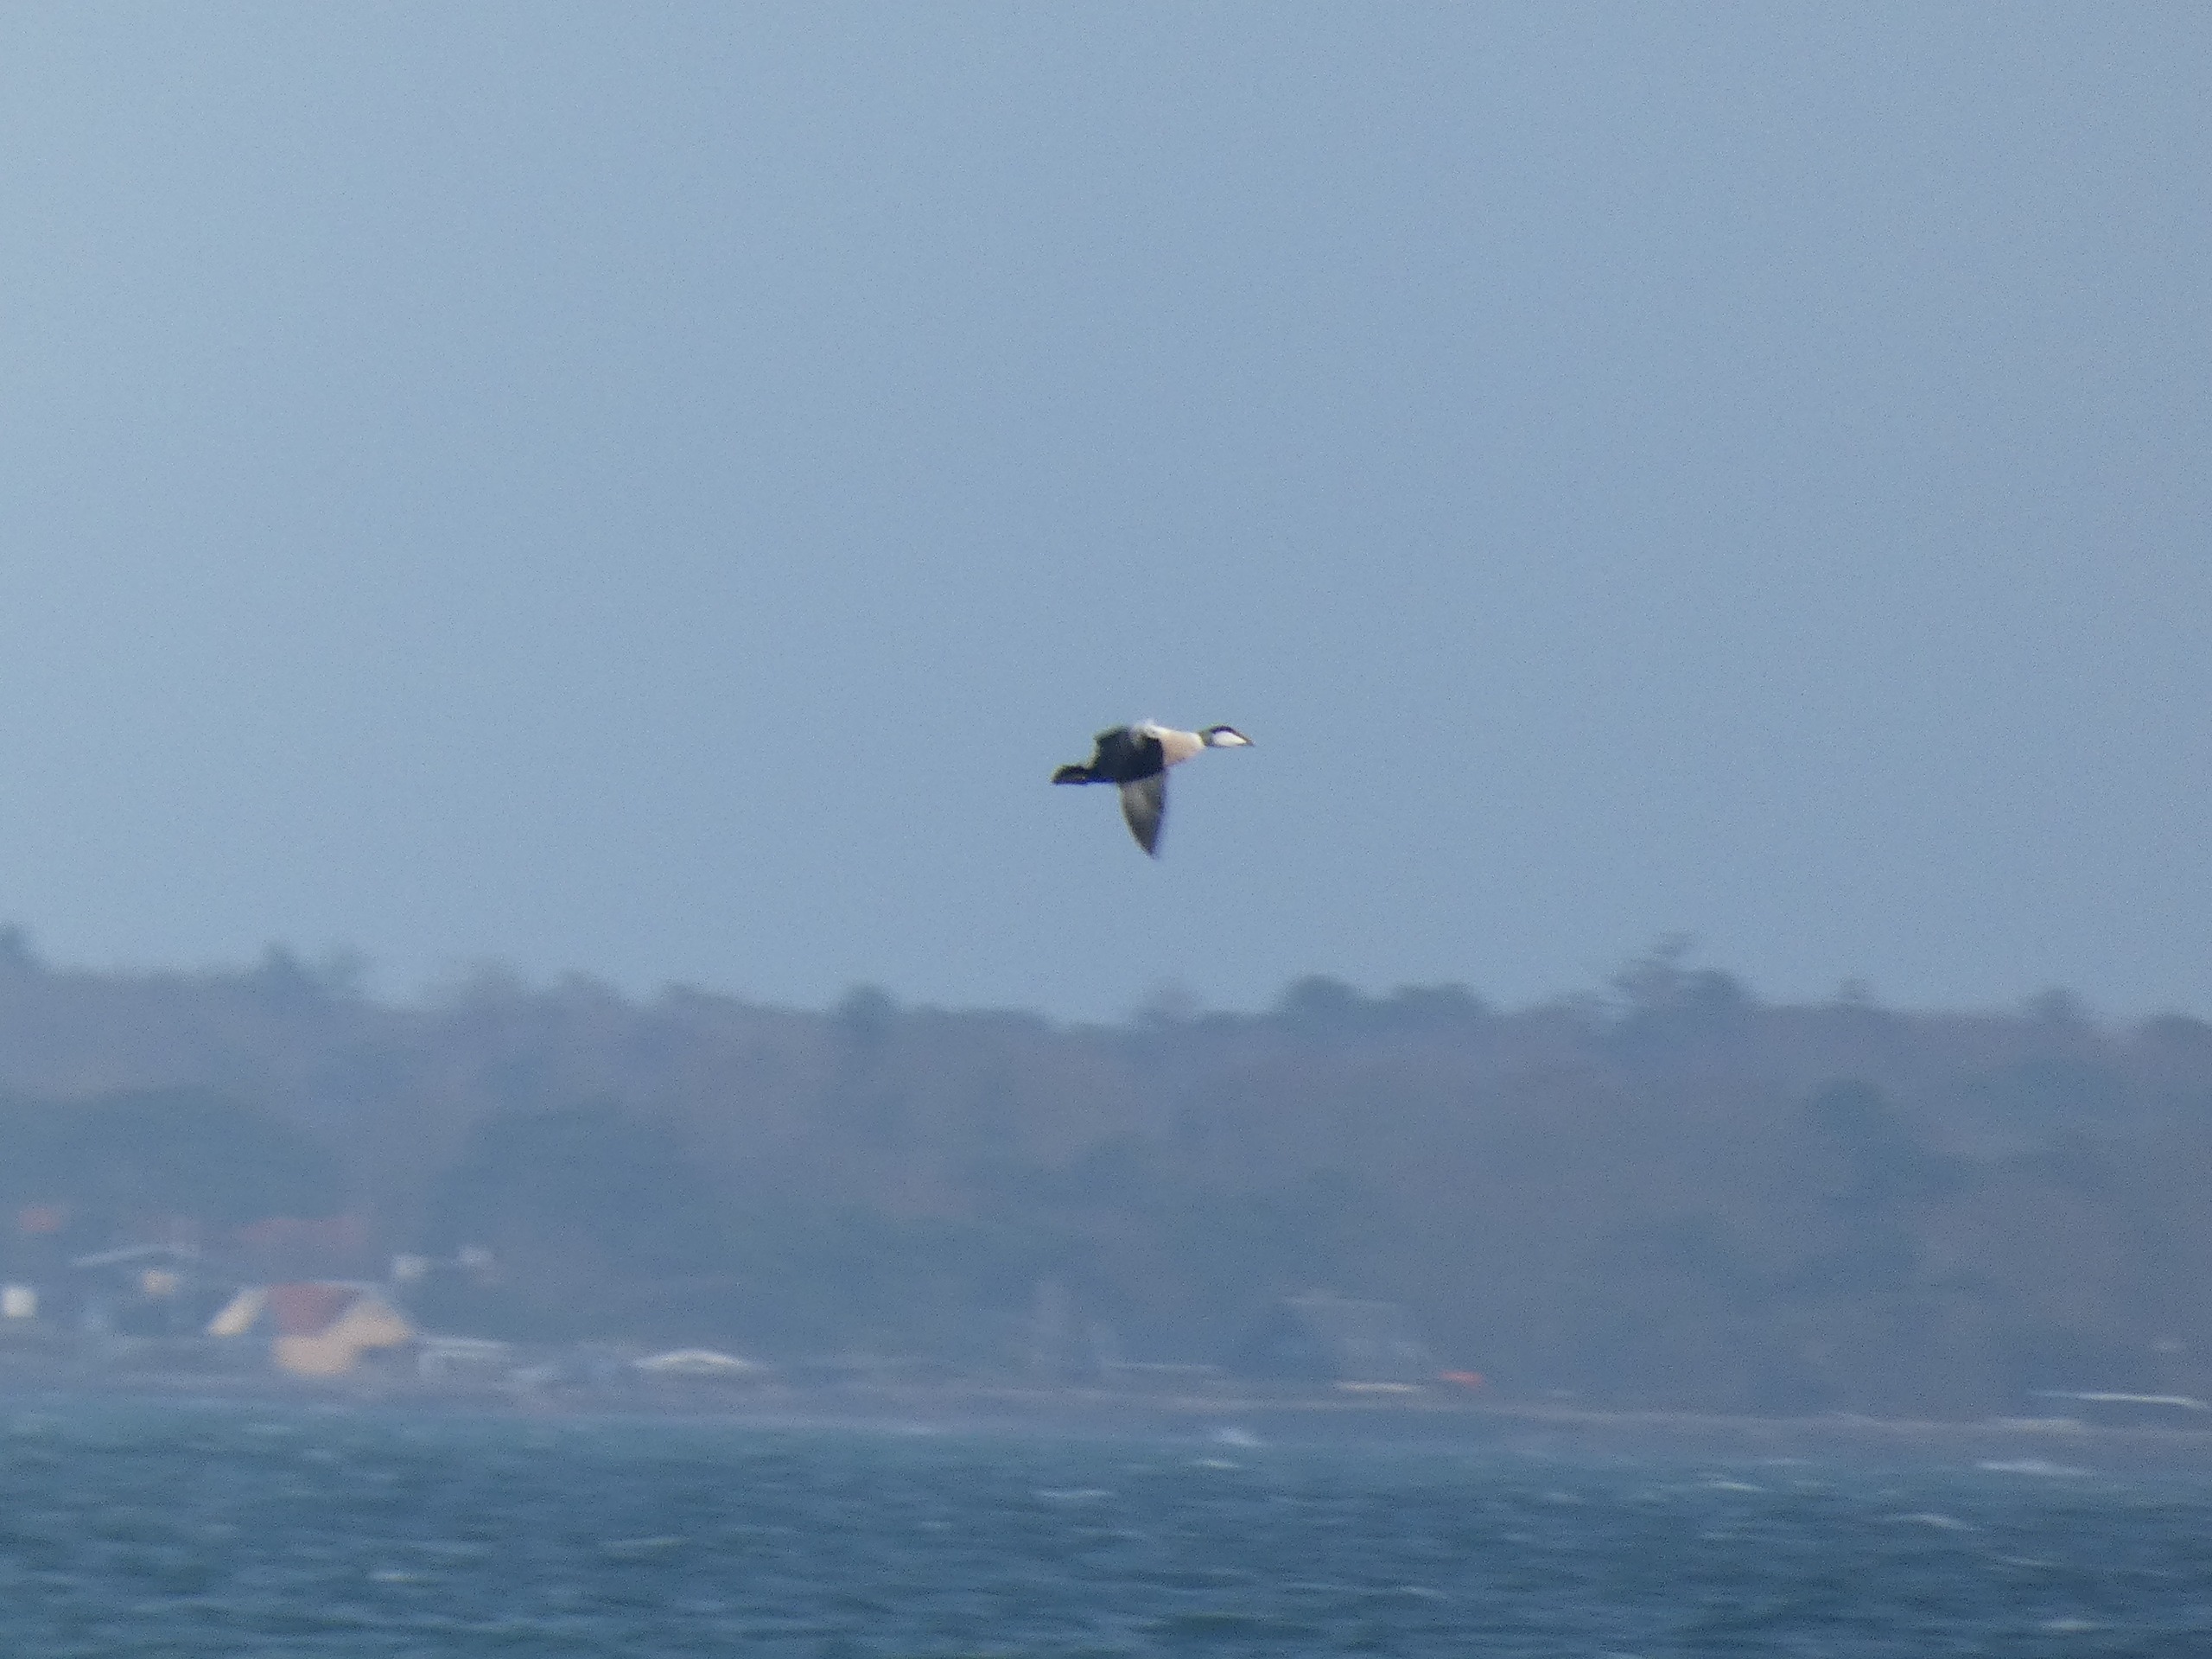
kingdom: Animalia
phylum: Chordata
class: Aves
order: Anseriformes
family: Anatidae
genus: Somateria
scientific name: Somateria mollissima
